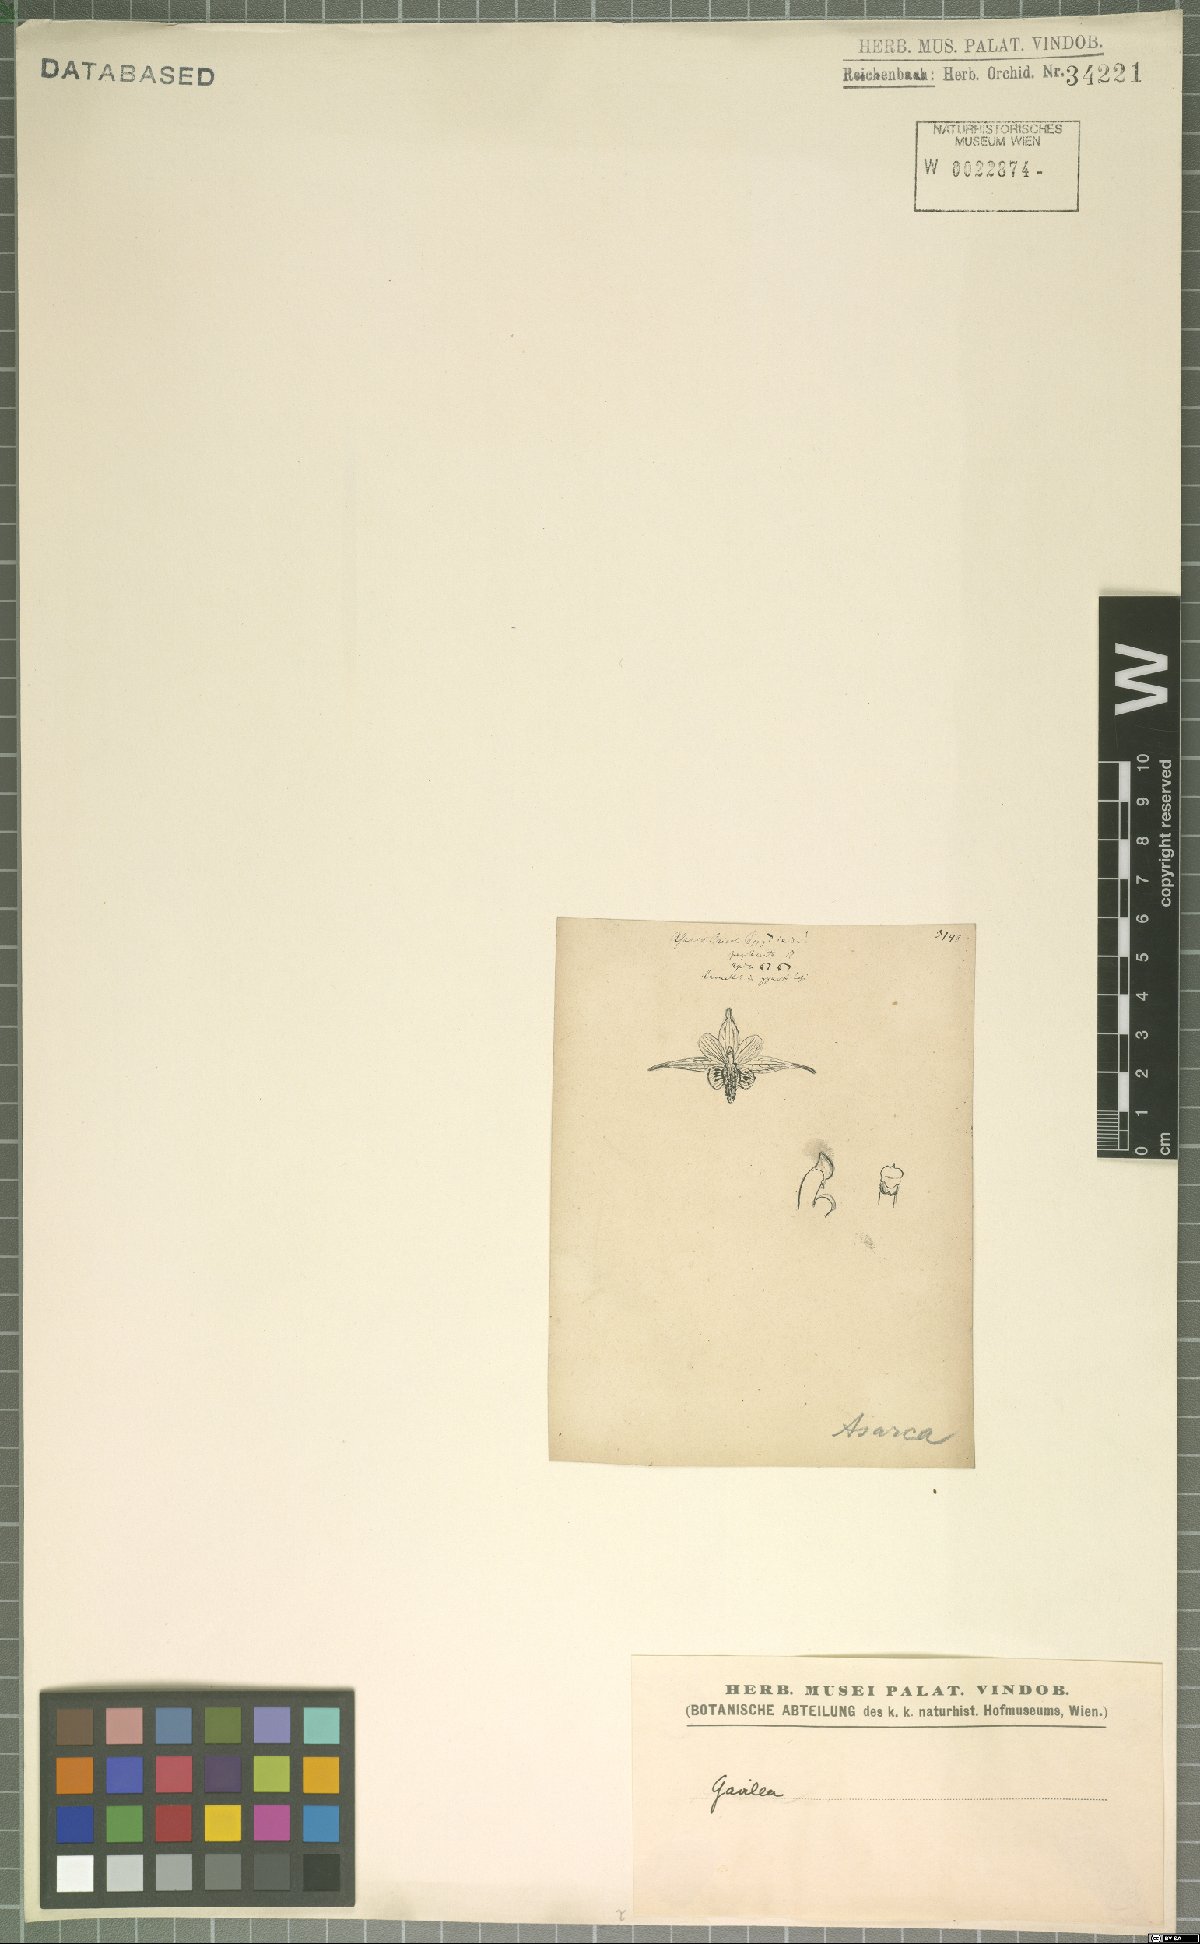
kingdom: Plantae
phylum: Tracheophyta
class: Liliopsida
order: Asparagales
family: Orchidaceae
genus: Gavilea
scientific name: Gavilea
